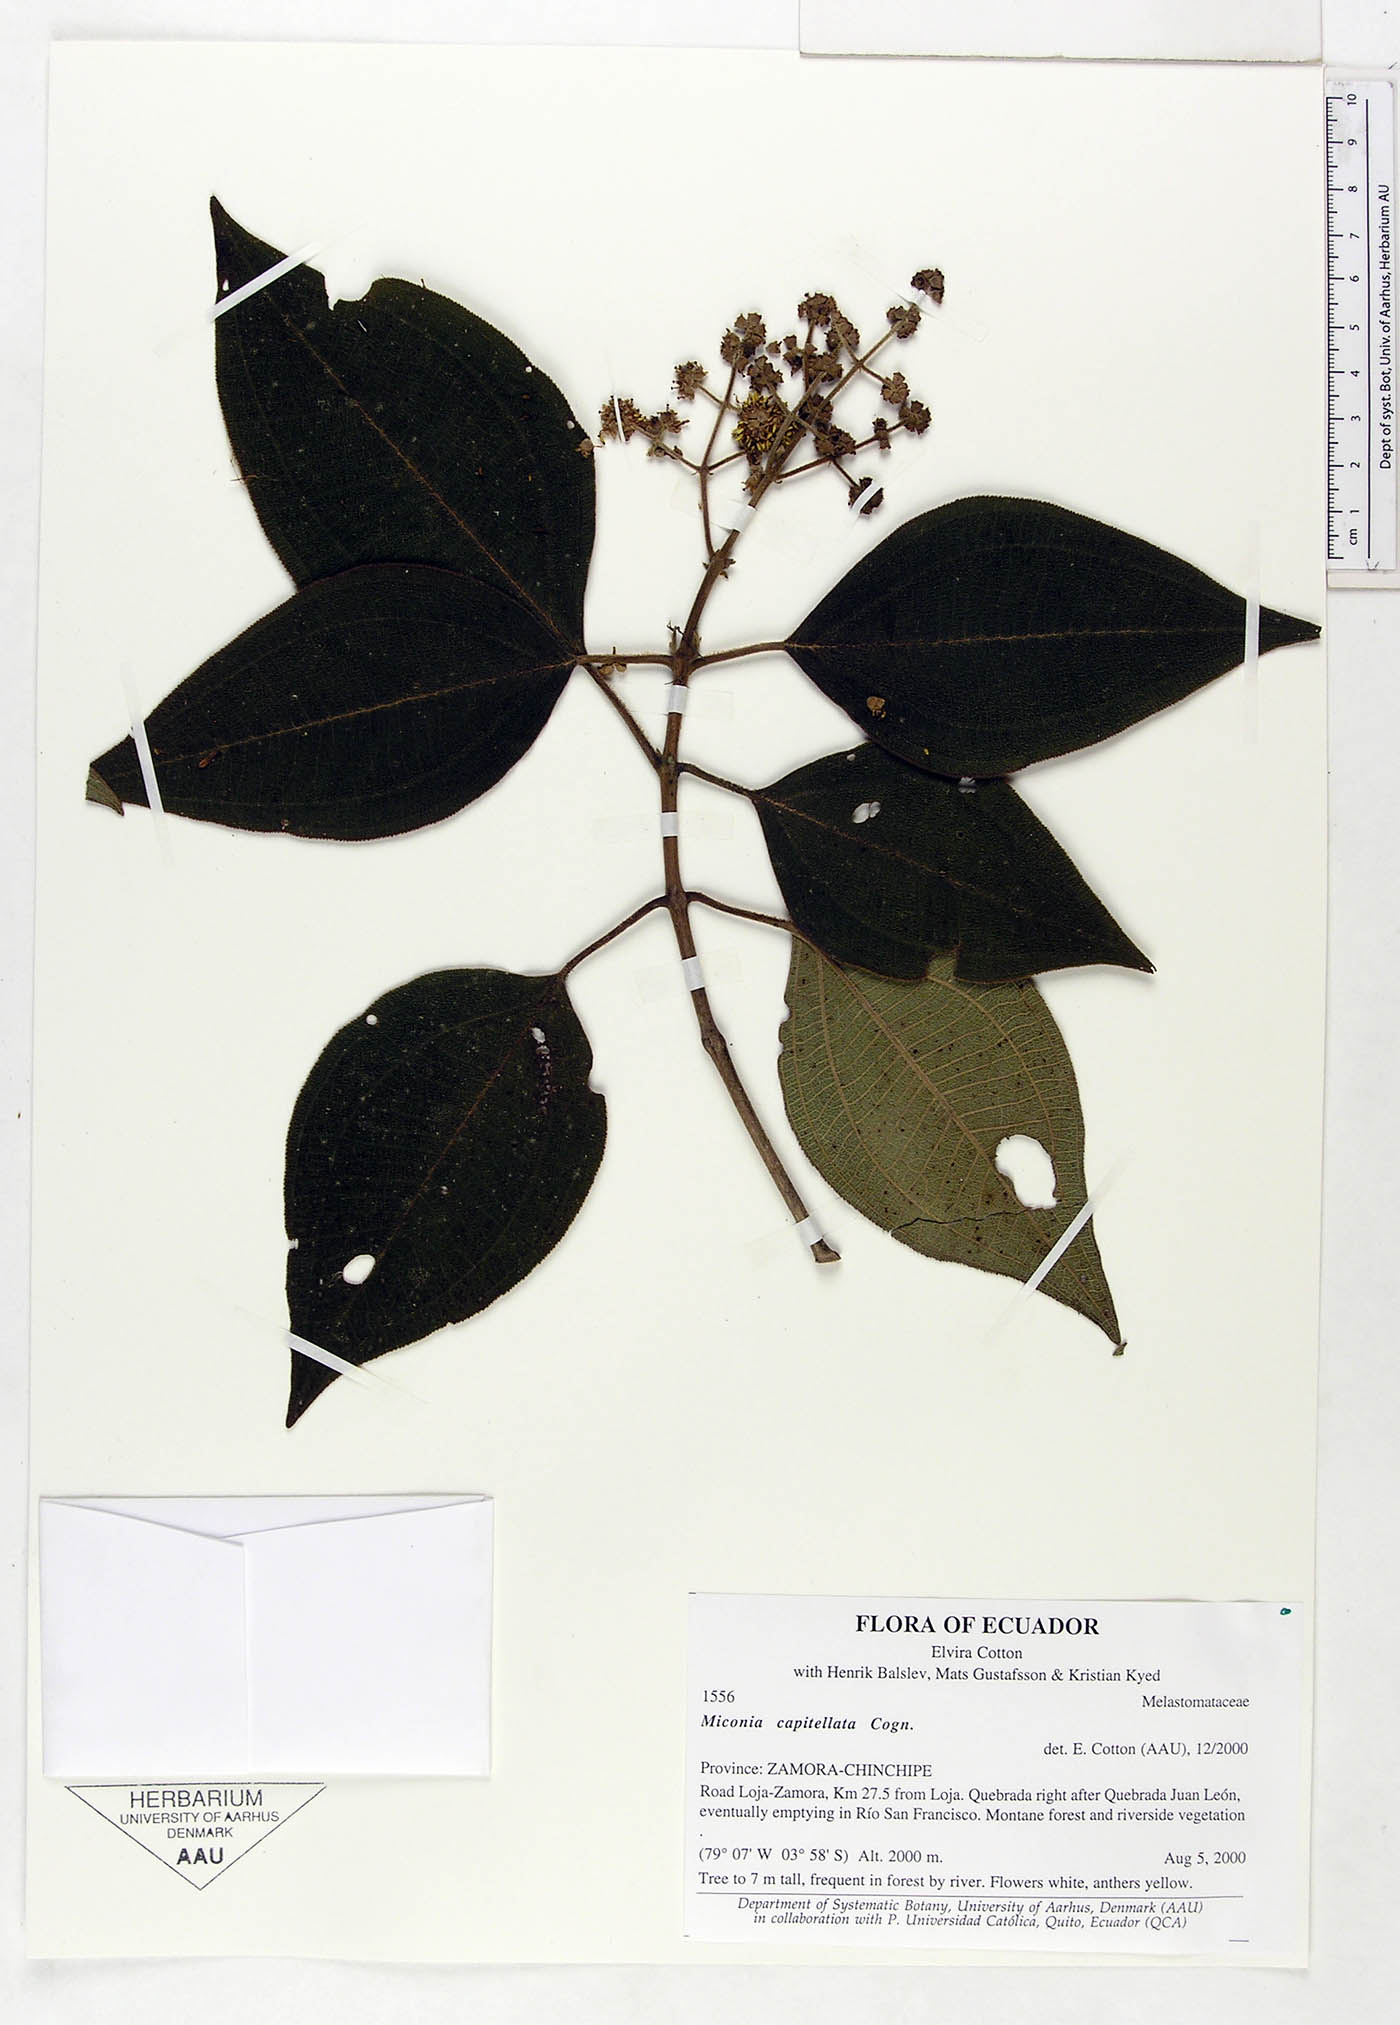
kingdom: Plantae
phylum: Tracheophyta
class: Magnoliopsida
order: Myrtales
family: Melastomataceae
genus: Miconia
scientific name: Miconia capitellata
